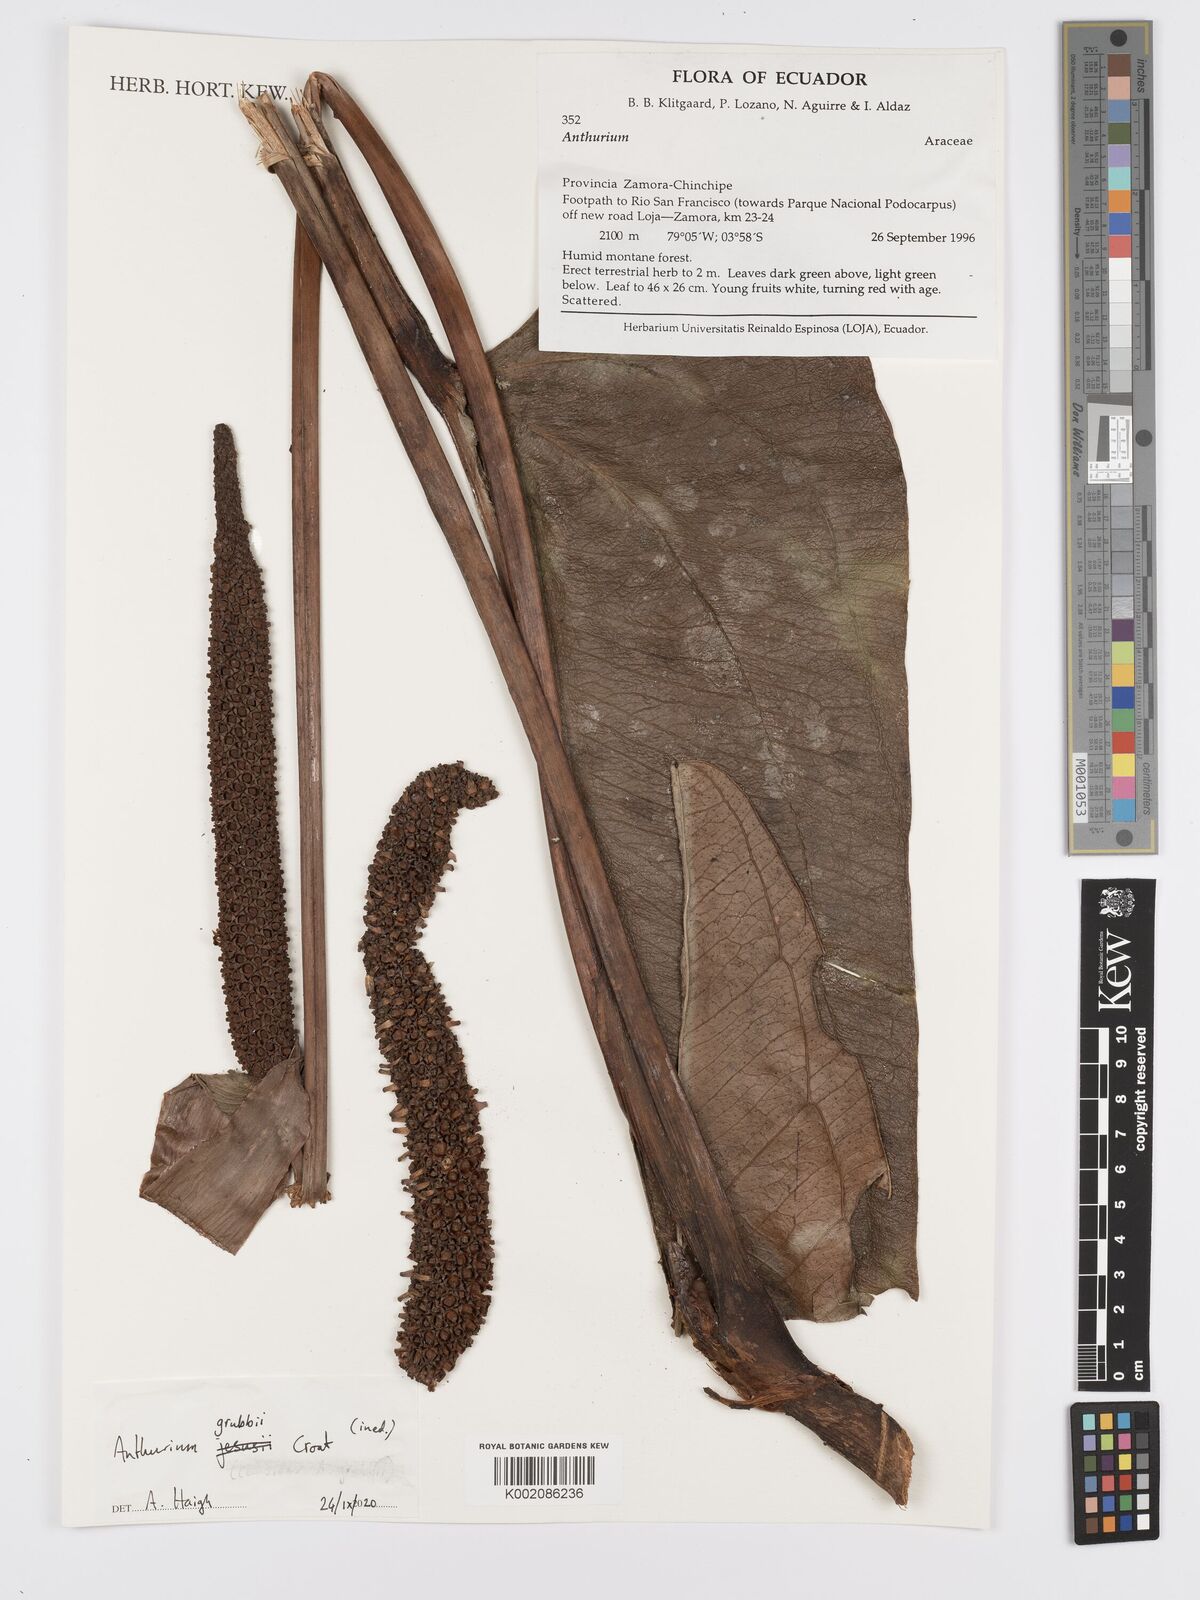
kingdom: Plantae
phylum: Tracheophyta
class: Liliopsida
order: Alismatales
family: Araceae
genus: Anthurium
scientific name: Anthurium
